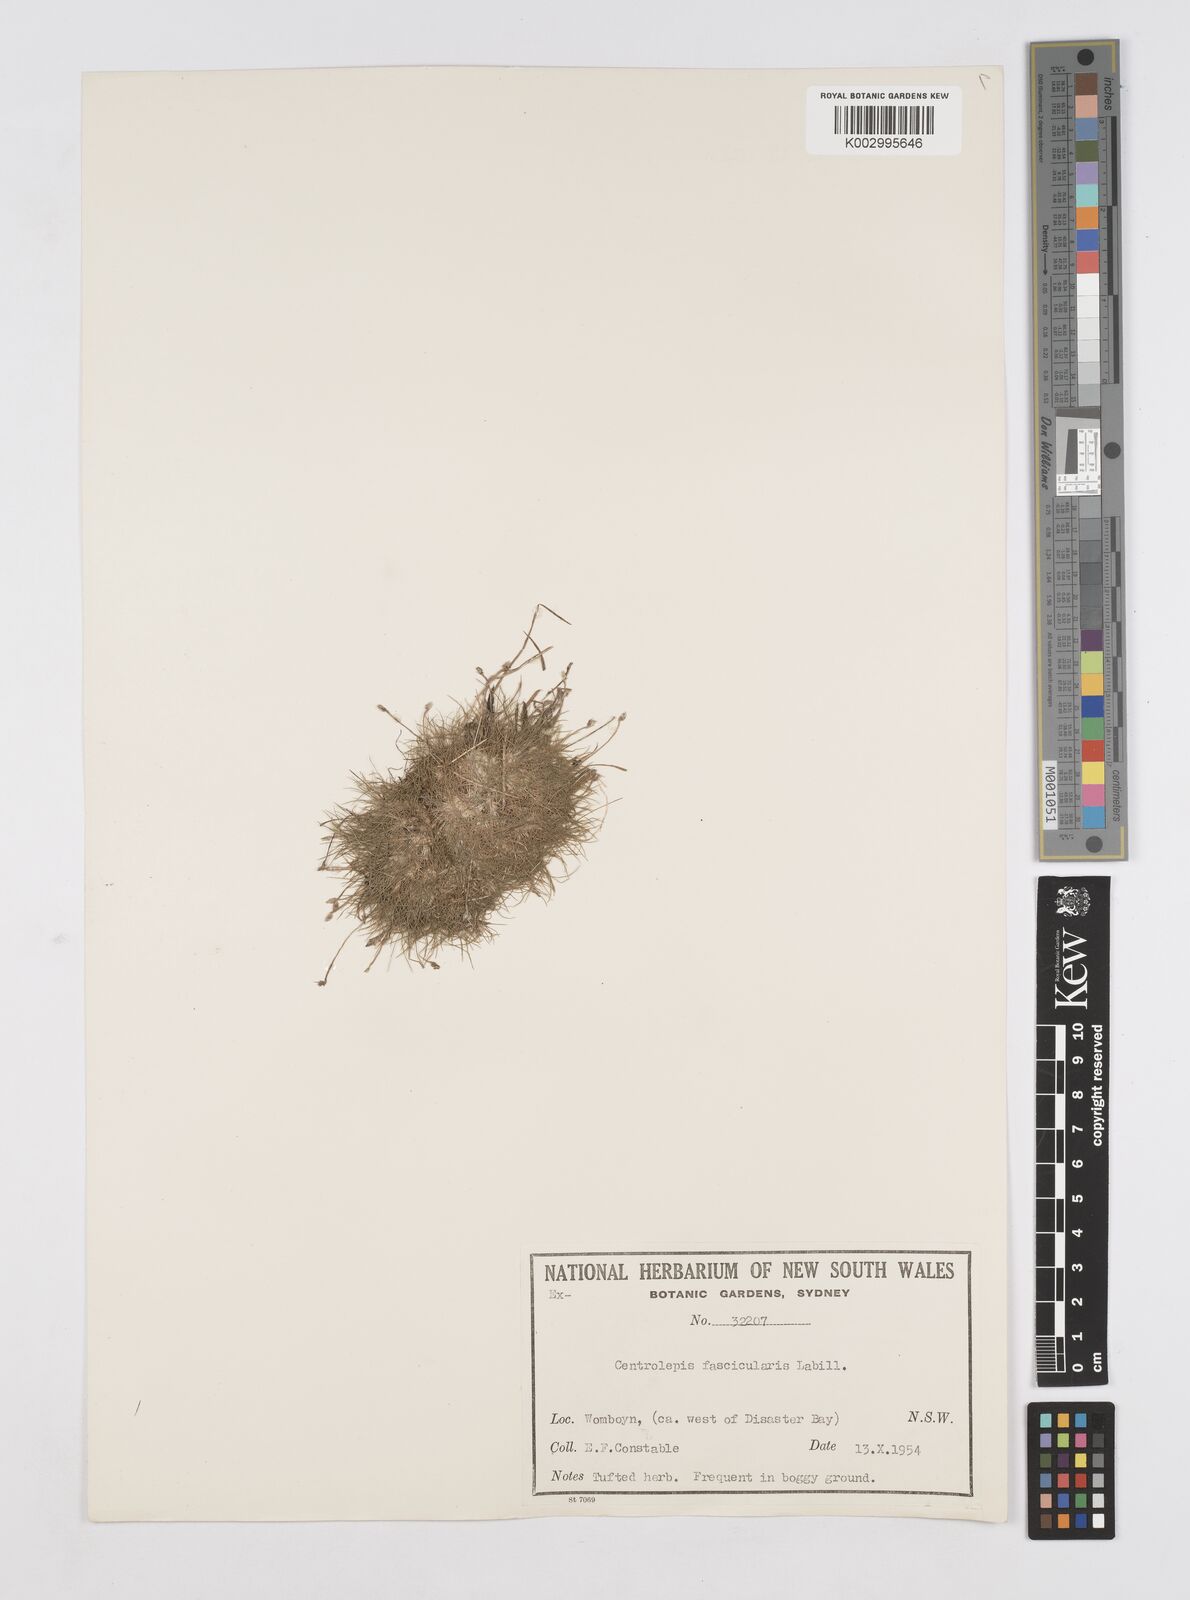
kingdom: Plantae
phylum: Tracheophyta
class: Liliopsida
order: Poales
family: Restionaceae
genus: Centrolepis
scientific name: Centrolepis fascicularis
